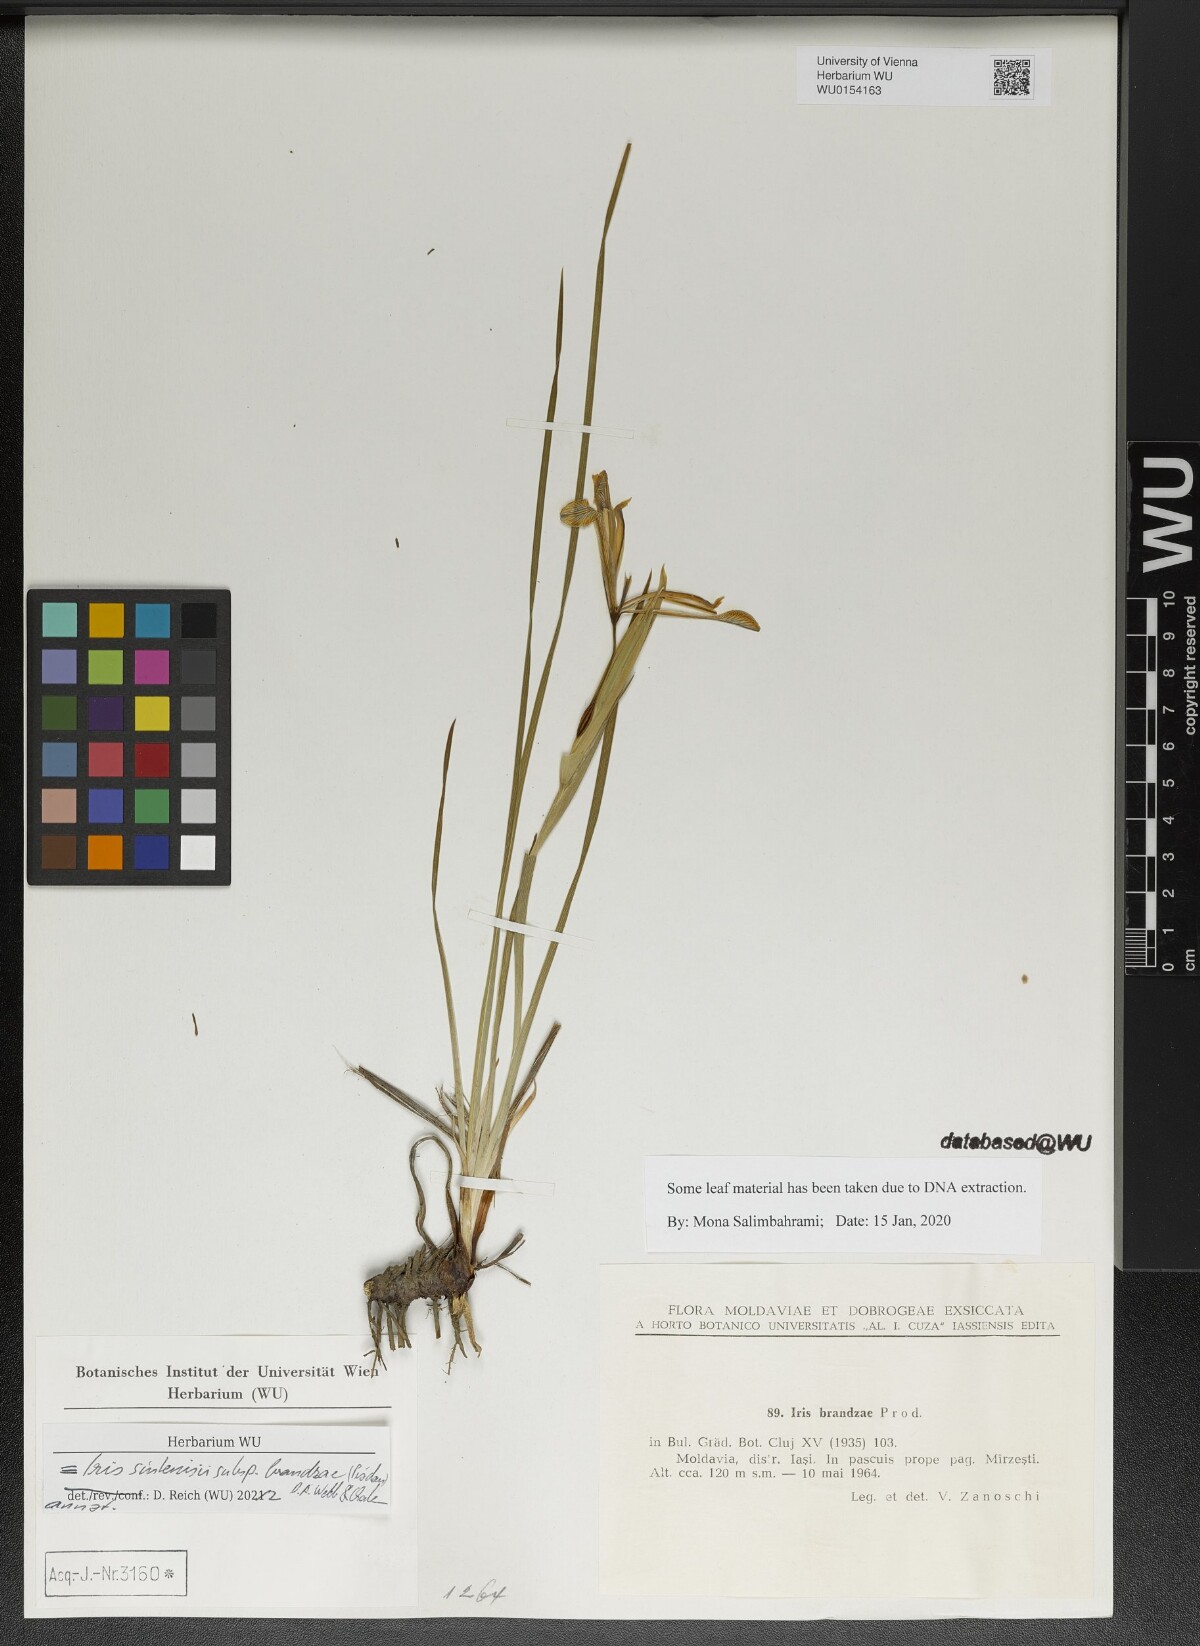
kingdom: Plantae
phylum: Tracheophyta
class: Liliopsida
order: Asparagales
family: Iridaceae
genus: Iris
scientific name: Iris sintenisii
